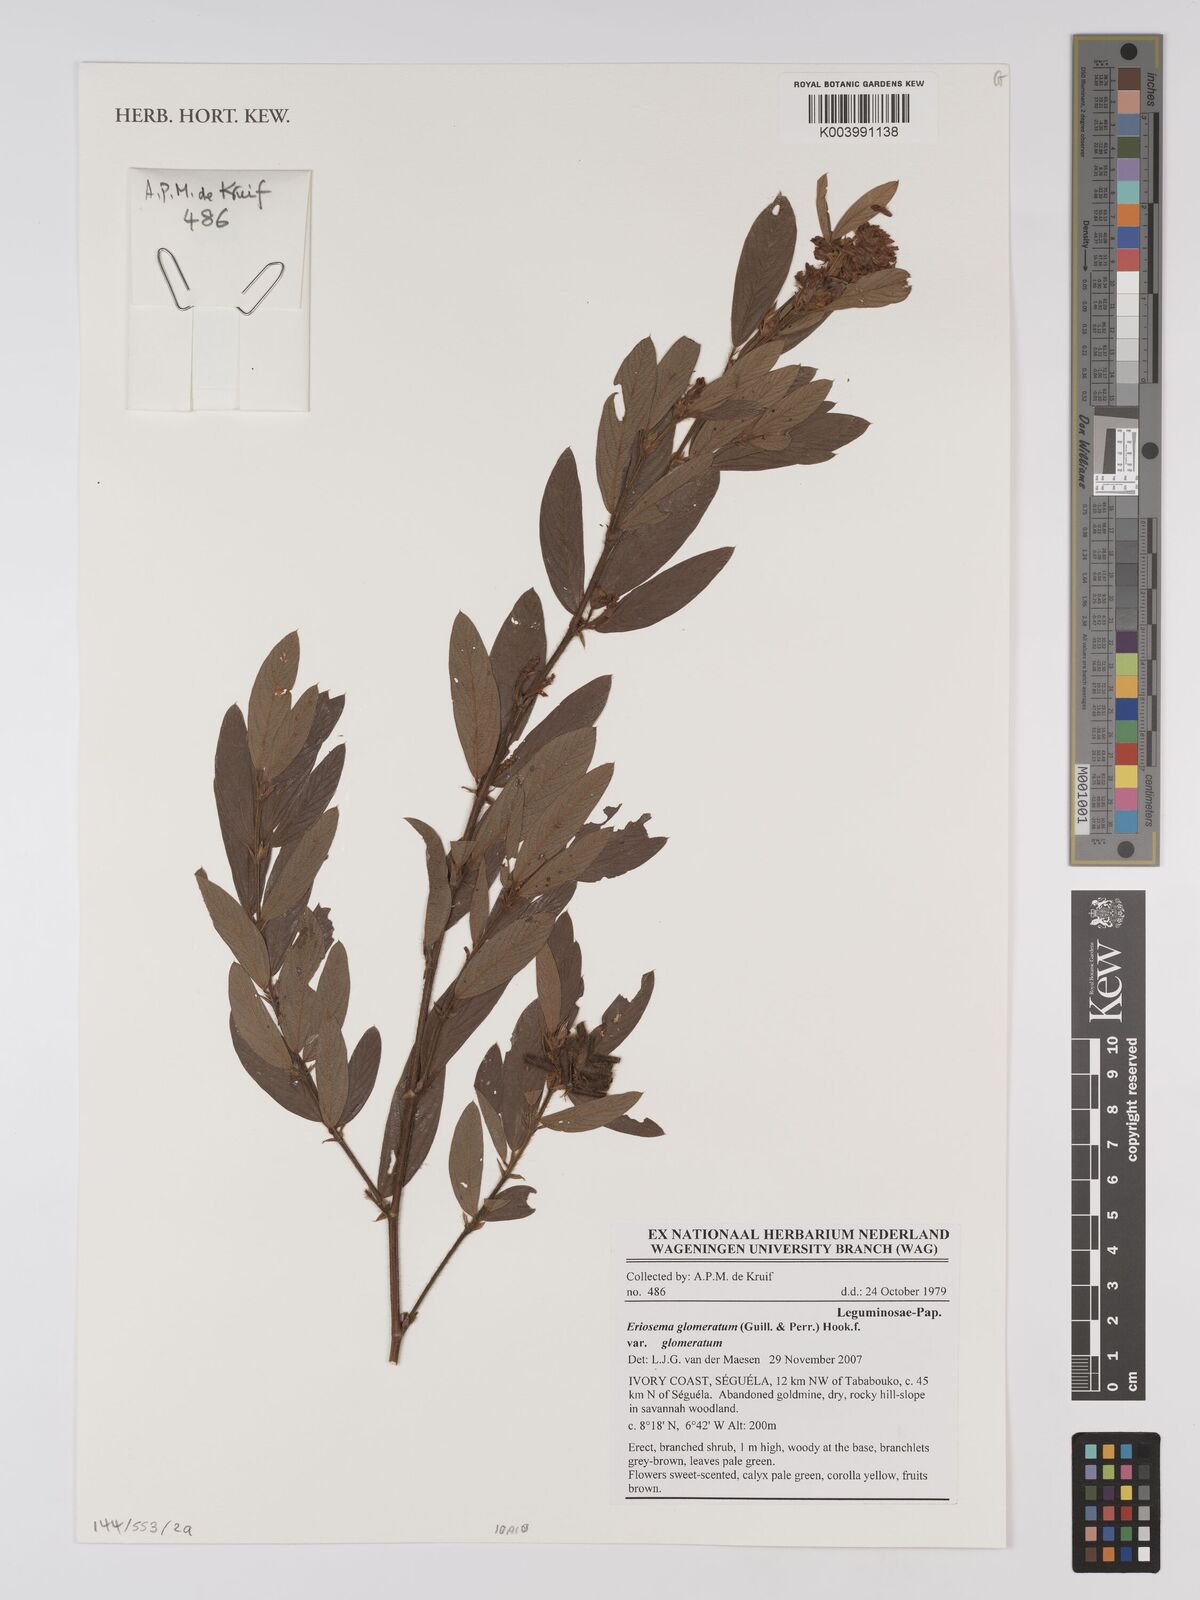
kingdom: Plantae
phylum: Tracheophyta
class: Magnoliopsida
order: Fabales
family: Fabaceae
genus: Eriosema
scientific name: Eriosema glomeratum
